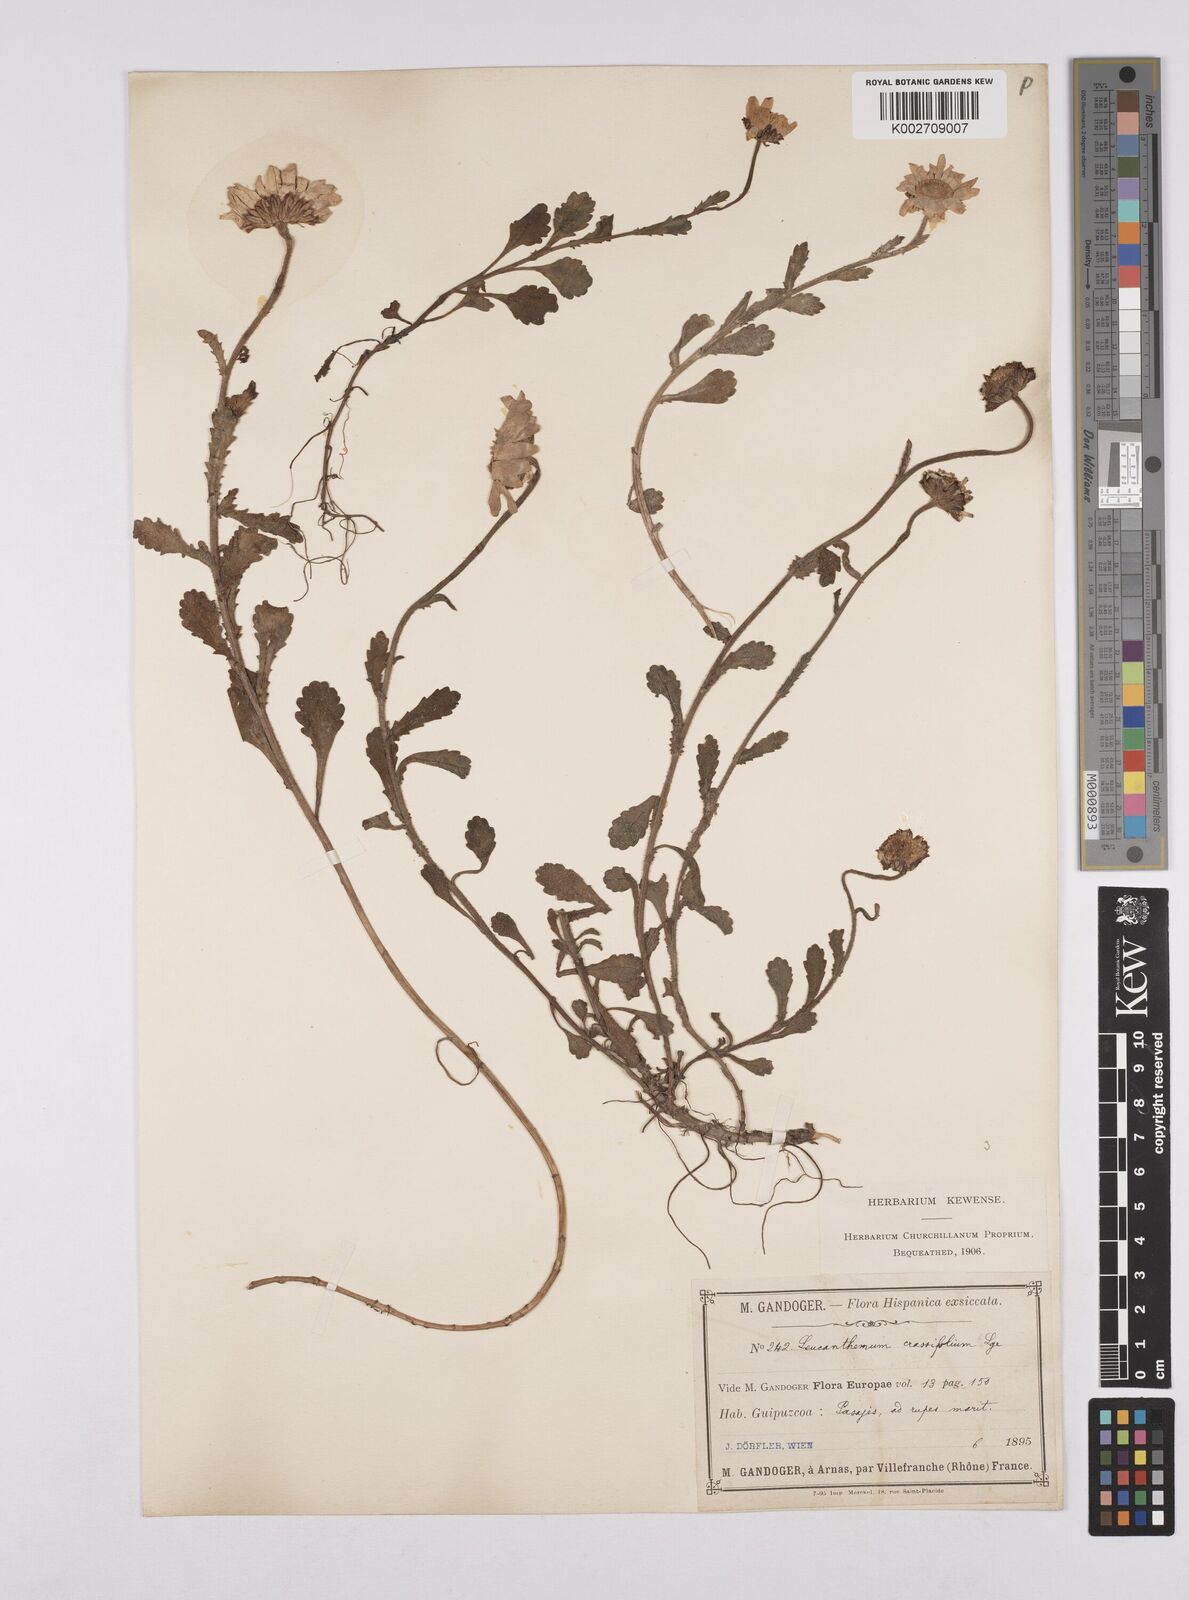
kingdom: Plantae
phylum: Tracheophyta
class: Magnoliopsida
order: Asterales
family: Asteraceae
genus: Leucanthemum
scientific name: Leucanthemum ircutianum
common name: Daisy
